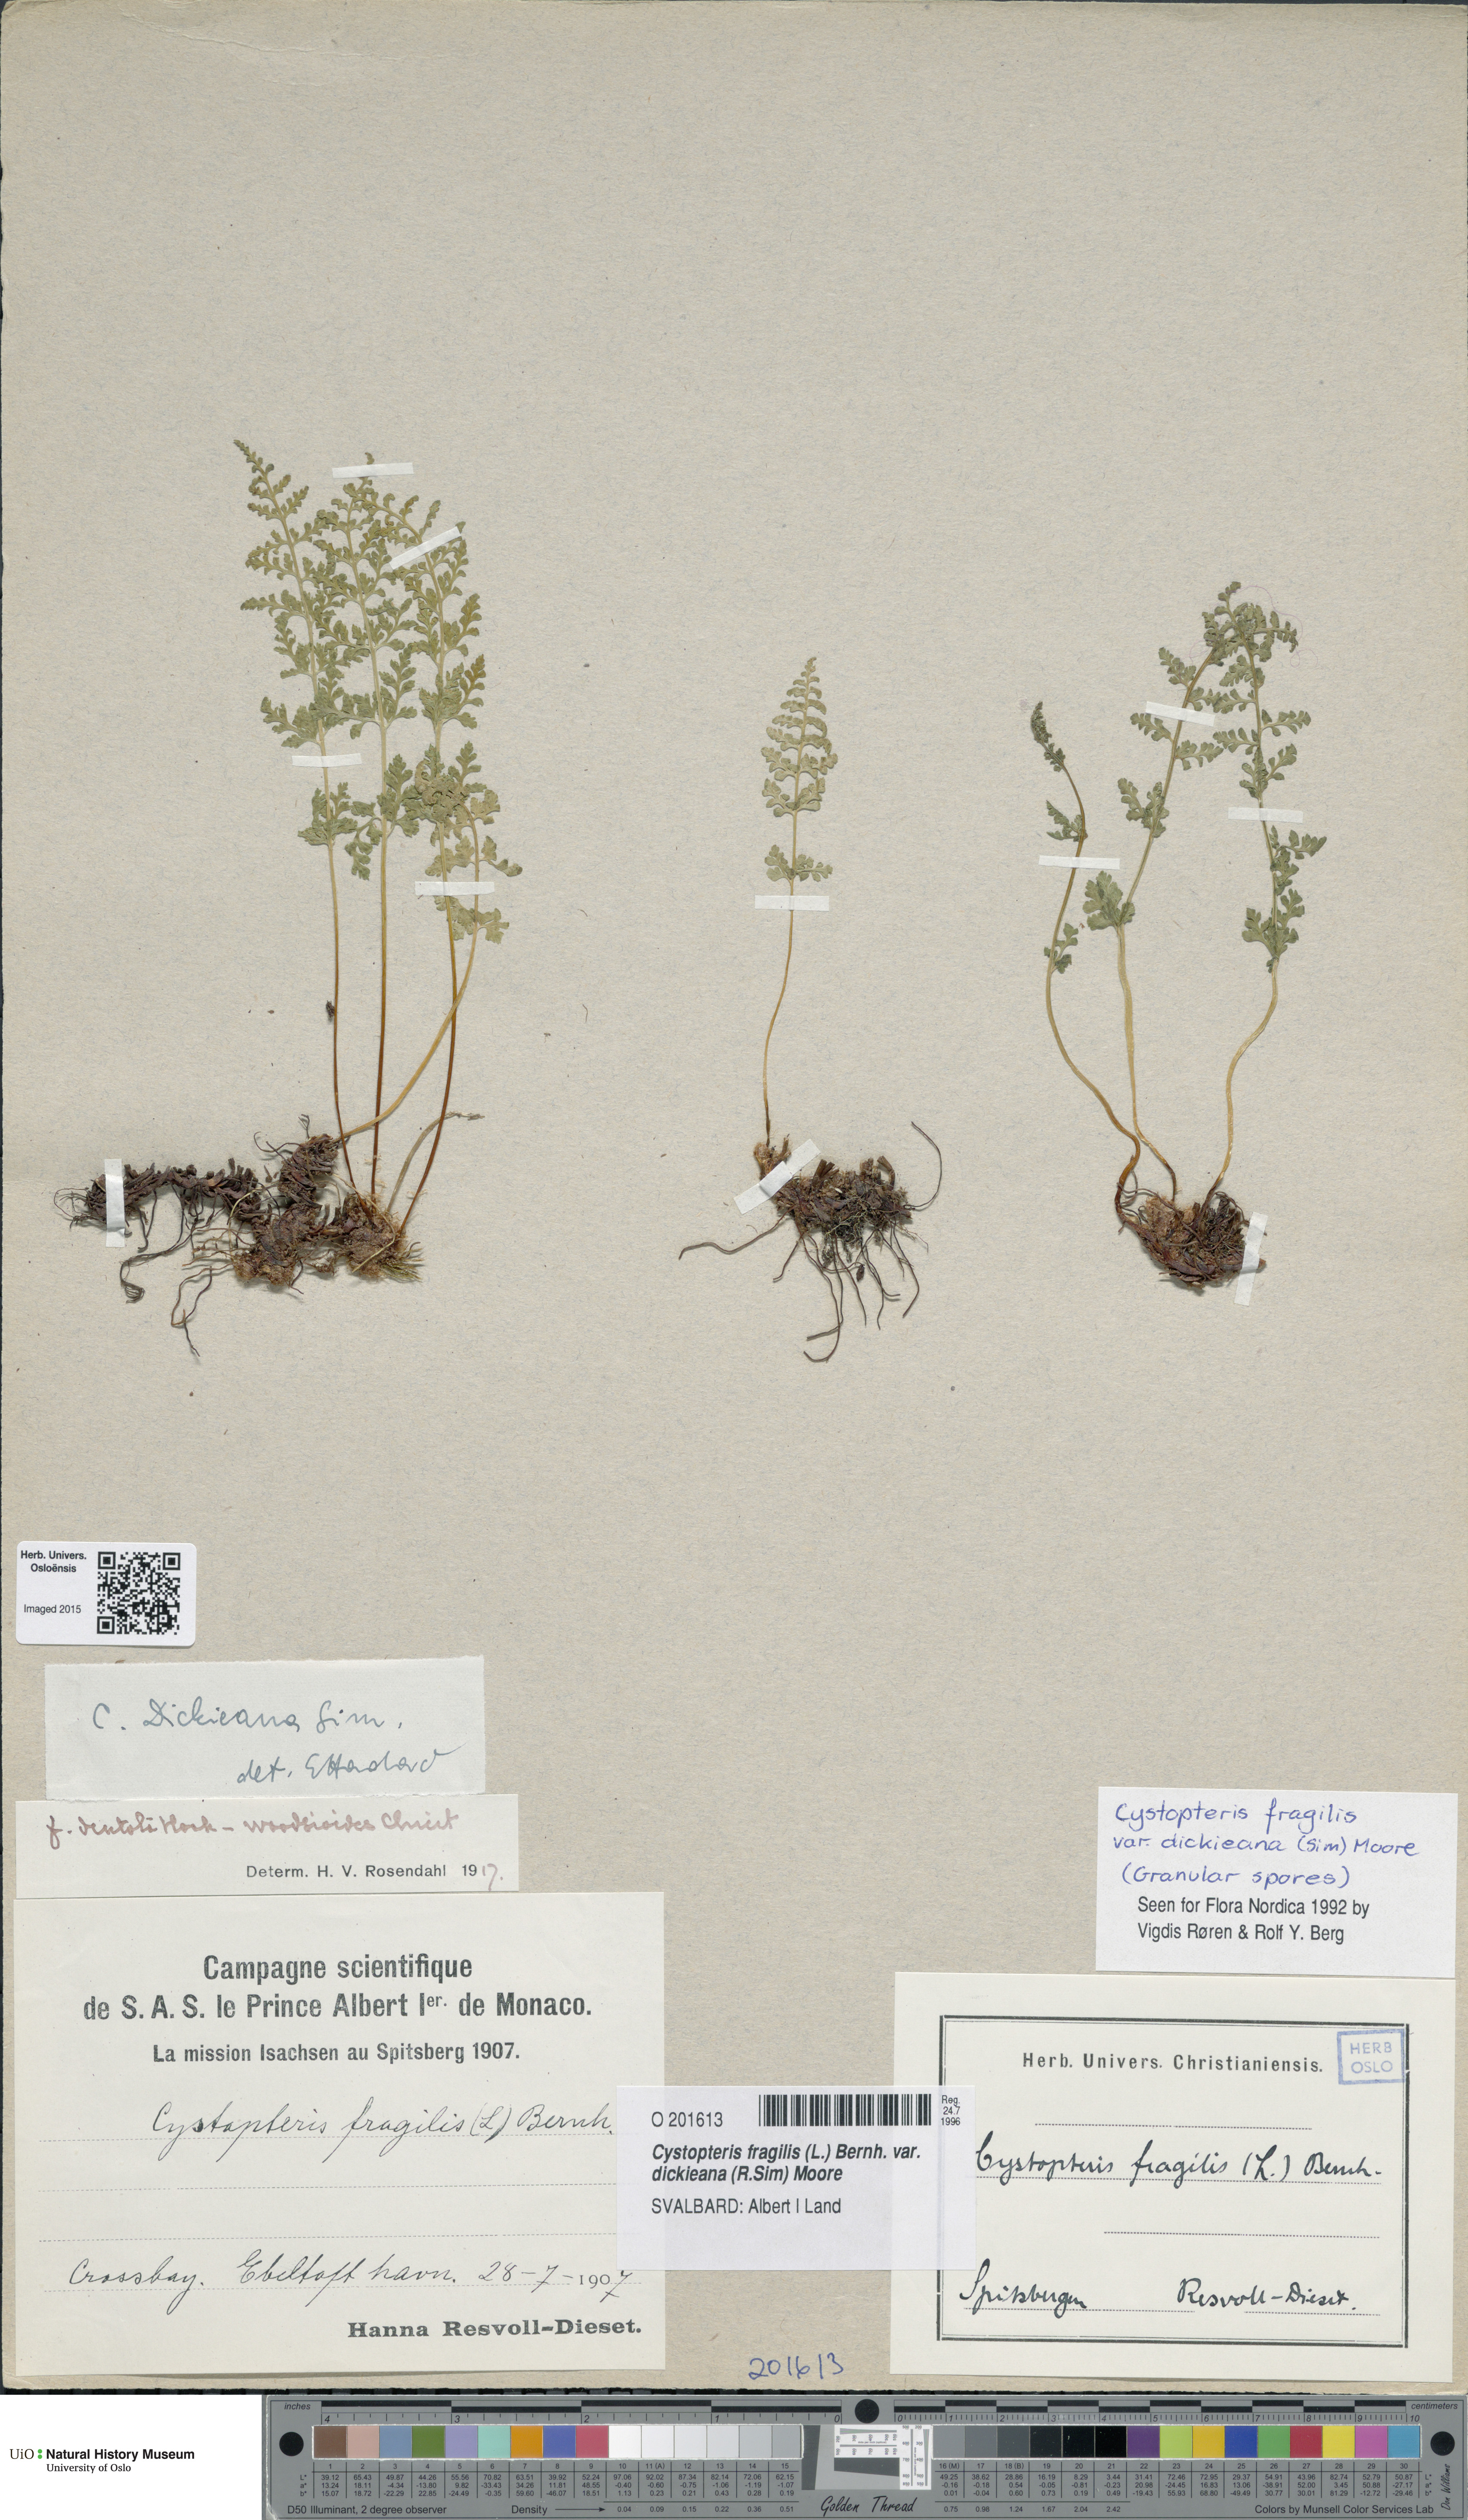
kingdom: Plantae
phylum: Tracheophyta
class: Polypodiopsida
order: Polypodiales
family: Cystopteridaceae
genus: Cystopteris
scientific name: Cystopteris dickieana
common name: Dickie's bladder-fern
